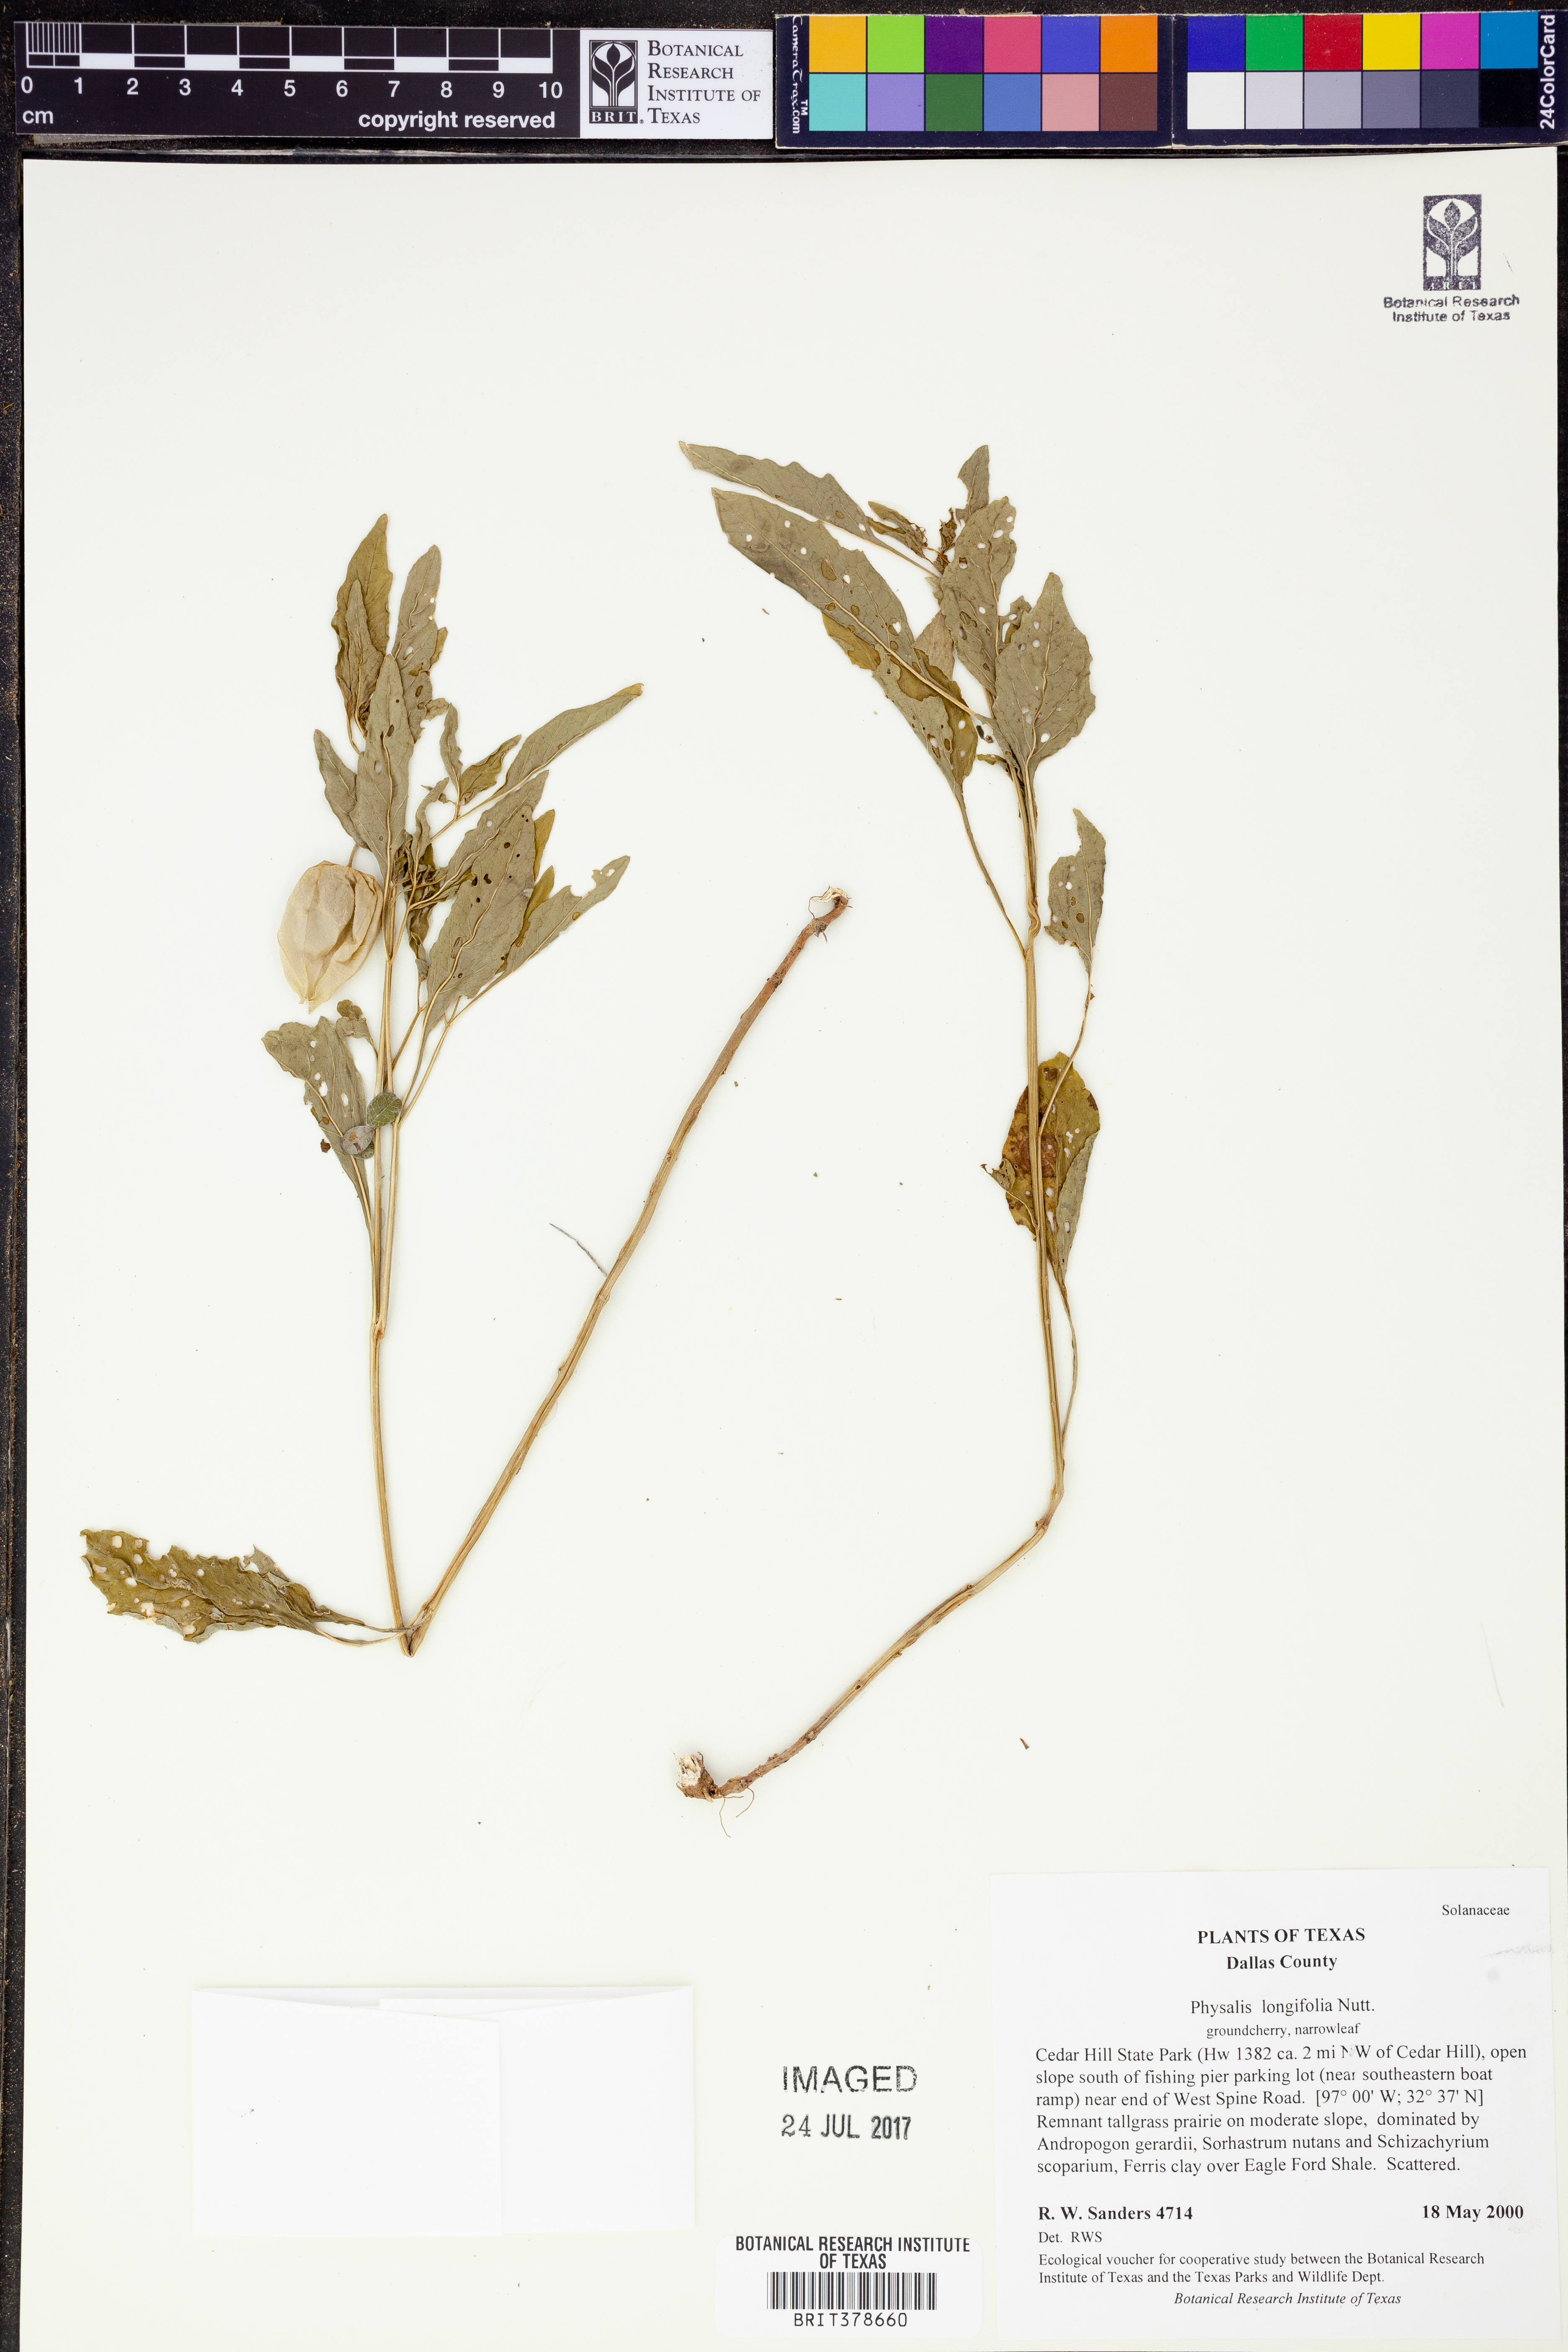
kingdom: Plantae
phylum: Tracheophyta
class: Magnoliopsida
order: Solanales
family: Solanaceae
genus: Physalis
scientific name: Physalis longifolia
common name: Common ground-cherry
